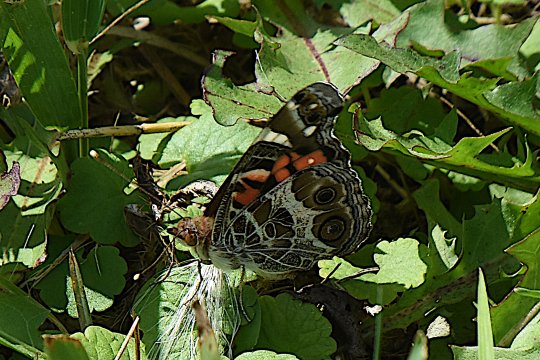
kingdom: Animalia
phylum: Arthropoda
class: Insecta
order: Lepidoptera
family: Nymphalidae
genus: Vanessa
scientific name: Vanessa virginiensis
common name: American Lady
